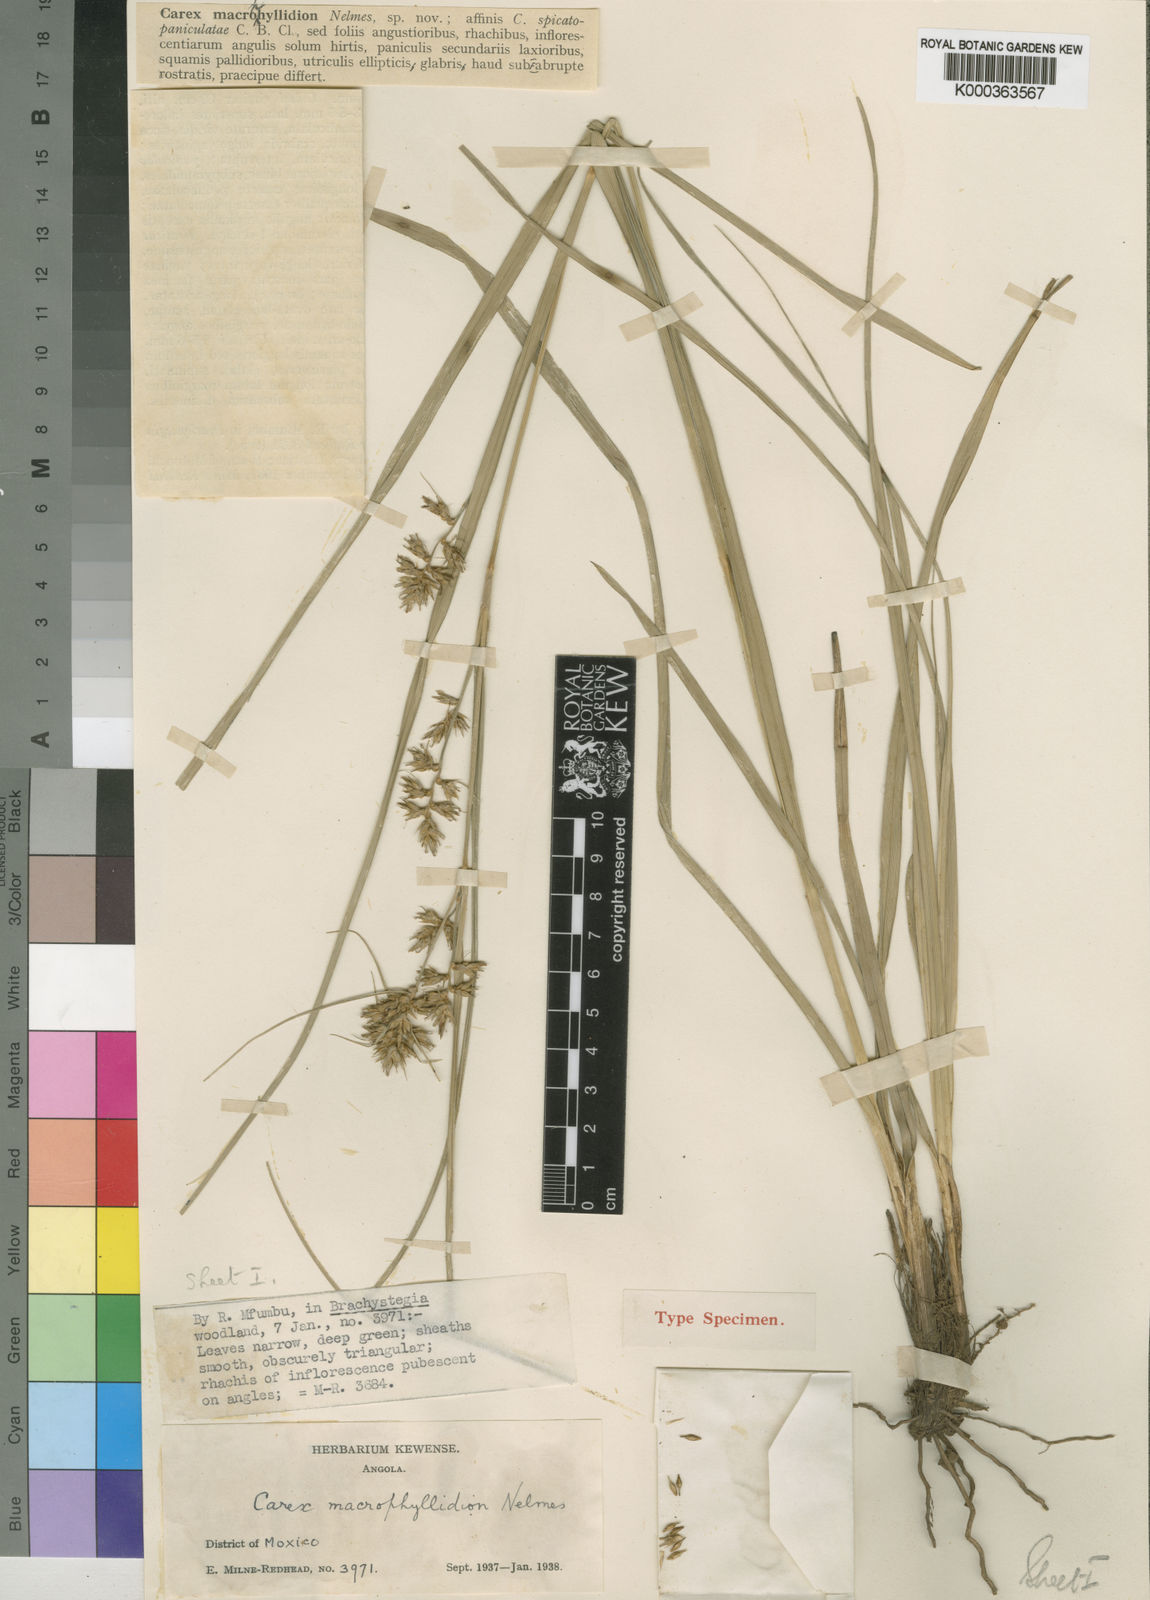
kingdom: Plantae
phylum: Tracheophyta
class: Liliopsida
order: Poales
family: Cyperaceae
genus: Carex
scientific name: Carex macrophyllidion
